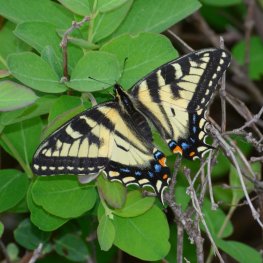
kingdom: Animalia
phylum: Arthropoda
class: Insecta
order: Lepidoptera
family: Papilionidae
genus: Pterourus
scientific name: Pterourus canadensis
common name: Canadian Tiger Swallowtail
